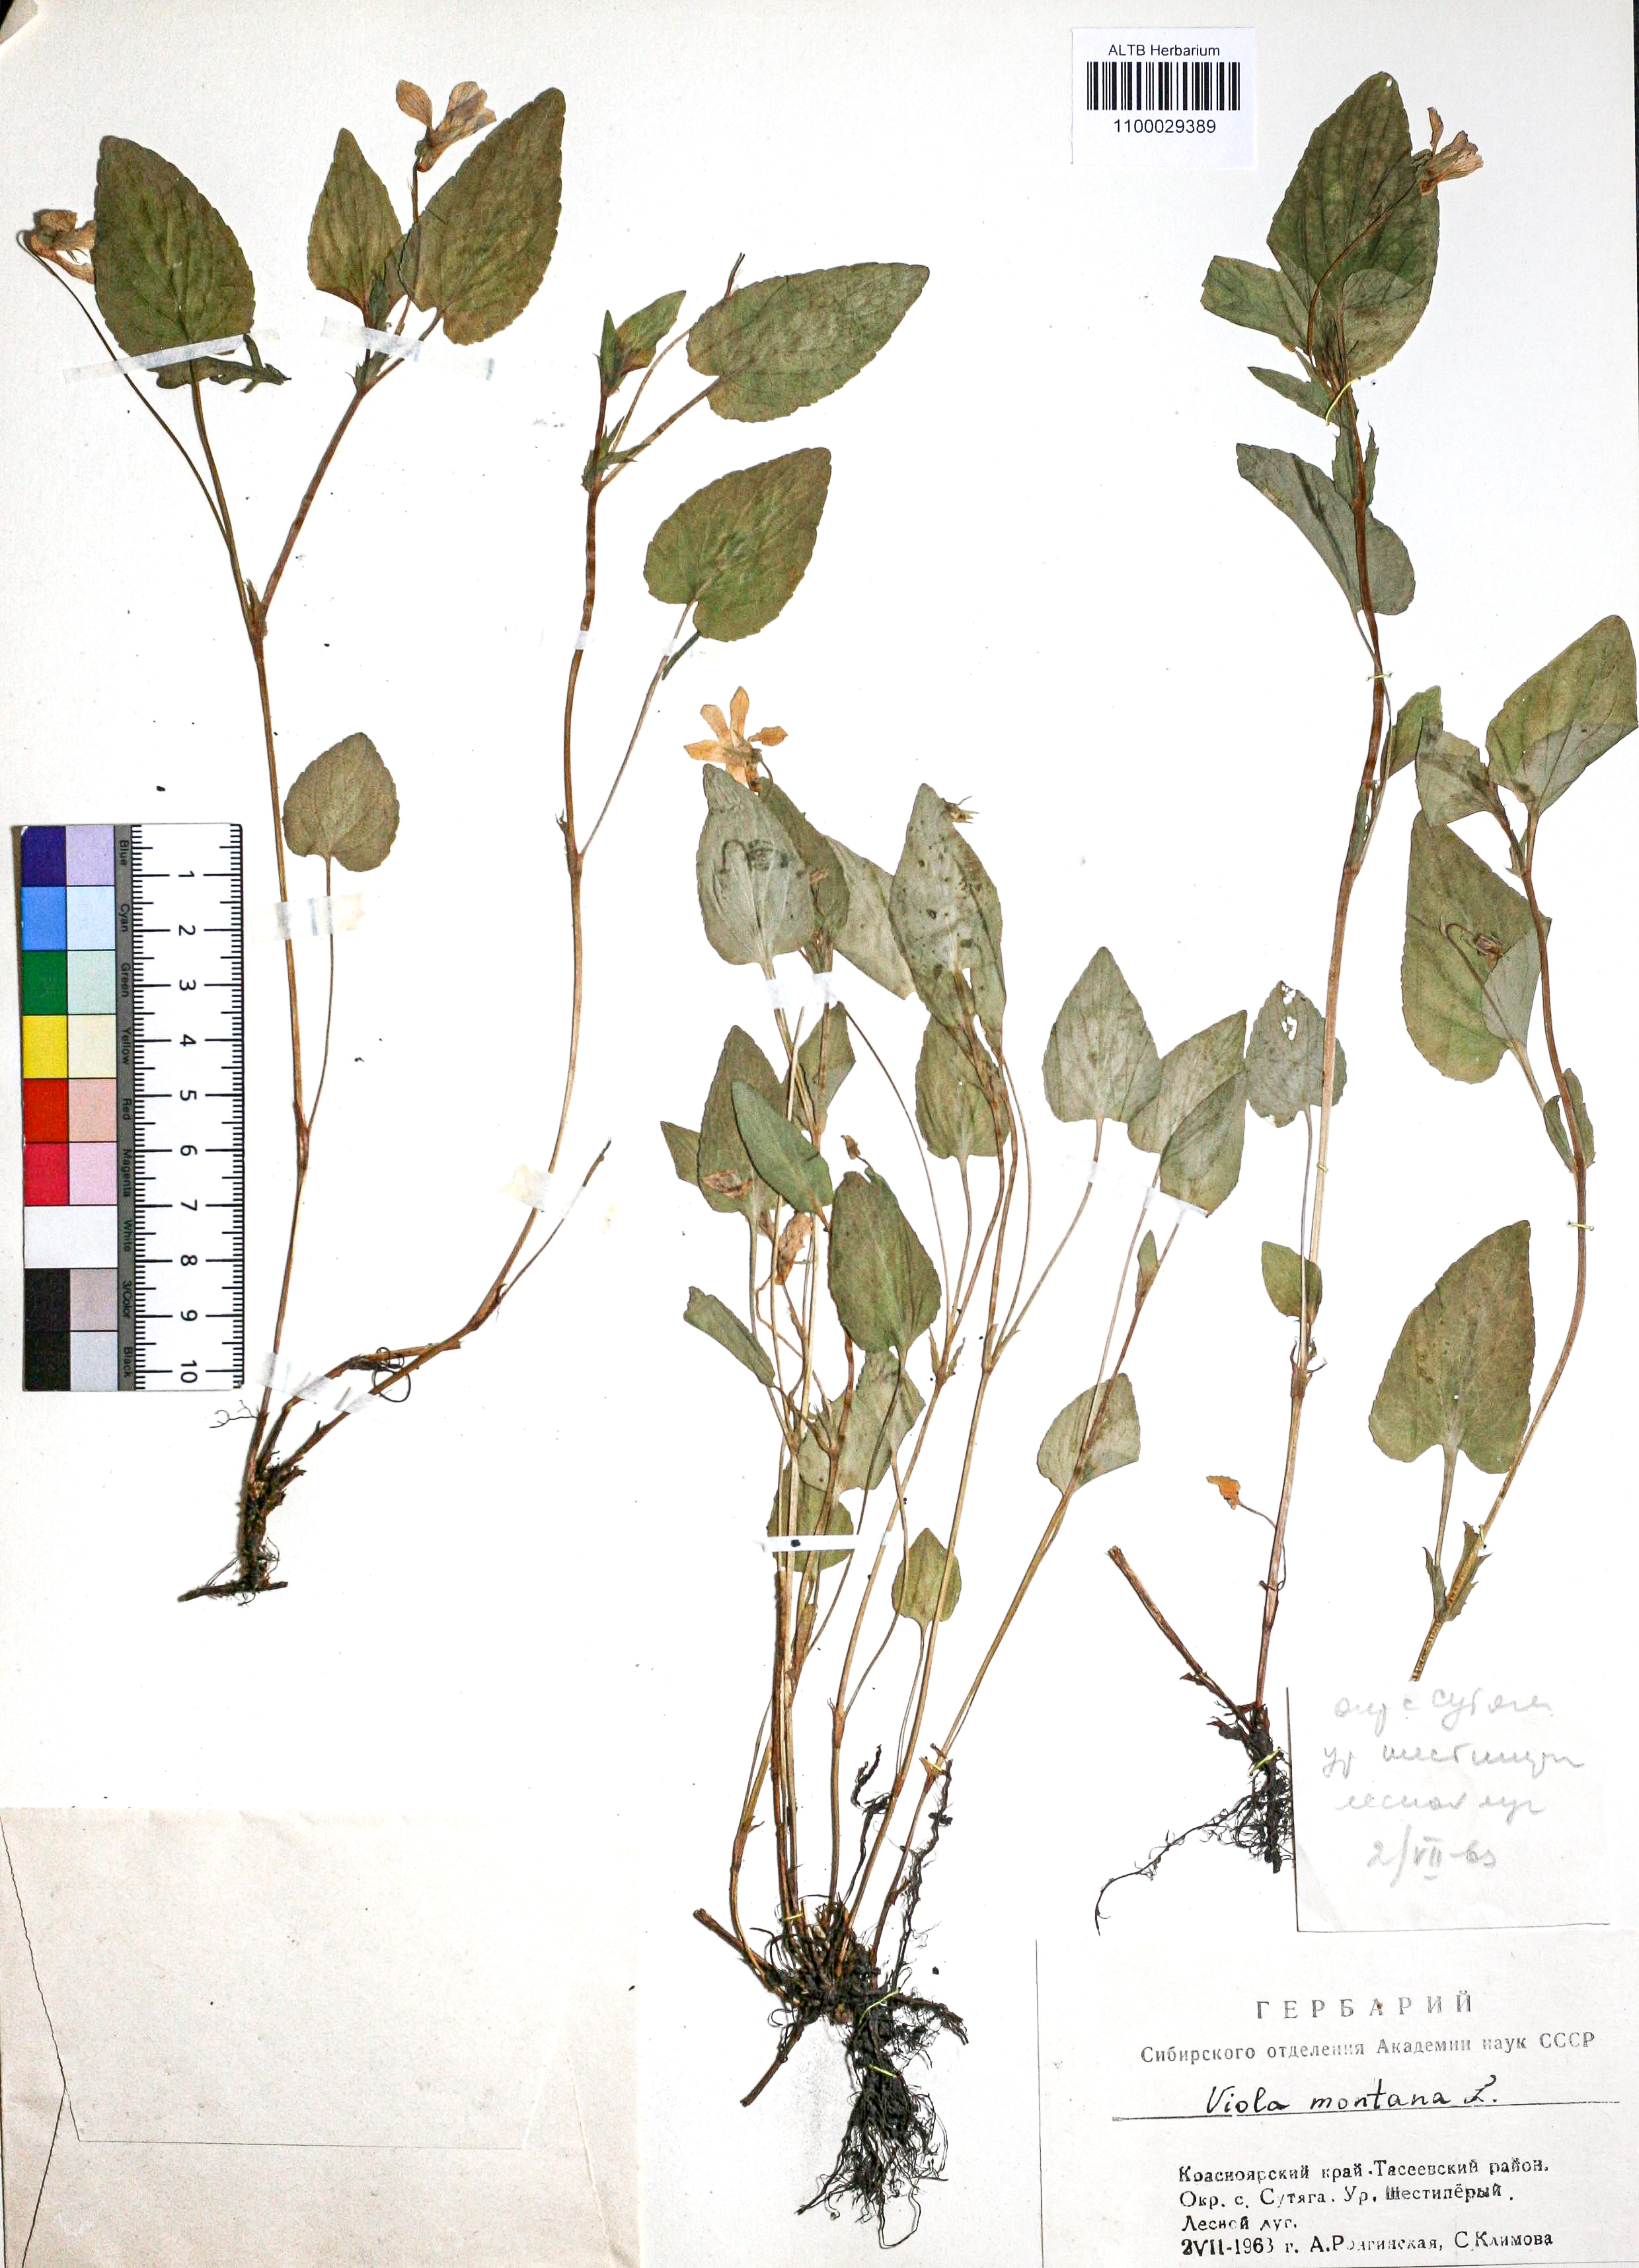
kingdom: Plantae
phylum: Tracheophyta
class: Magnoliopsida
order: Malpighiales
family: Violaceae
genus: Viola
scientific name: Viola ruppii
